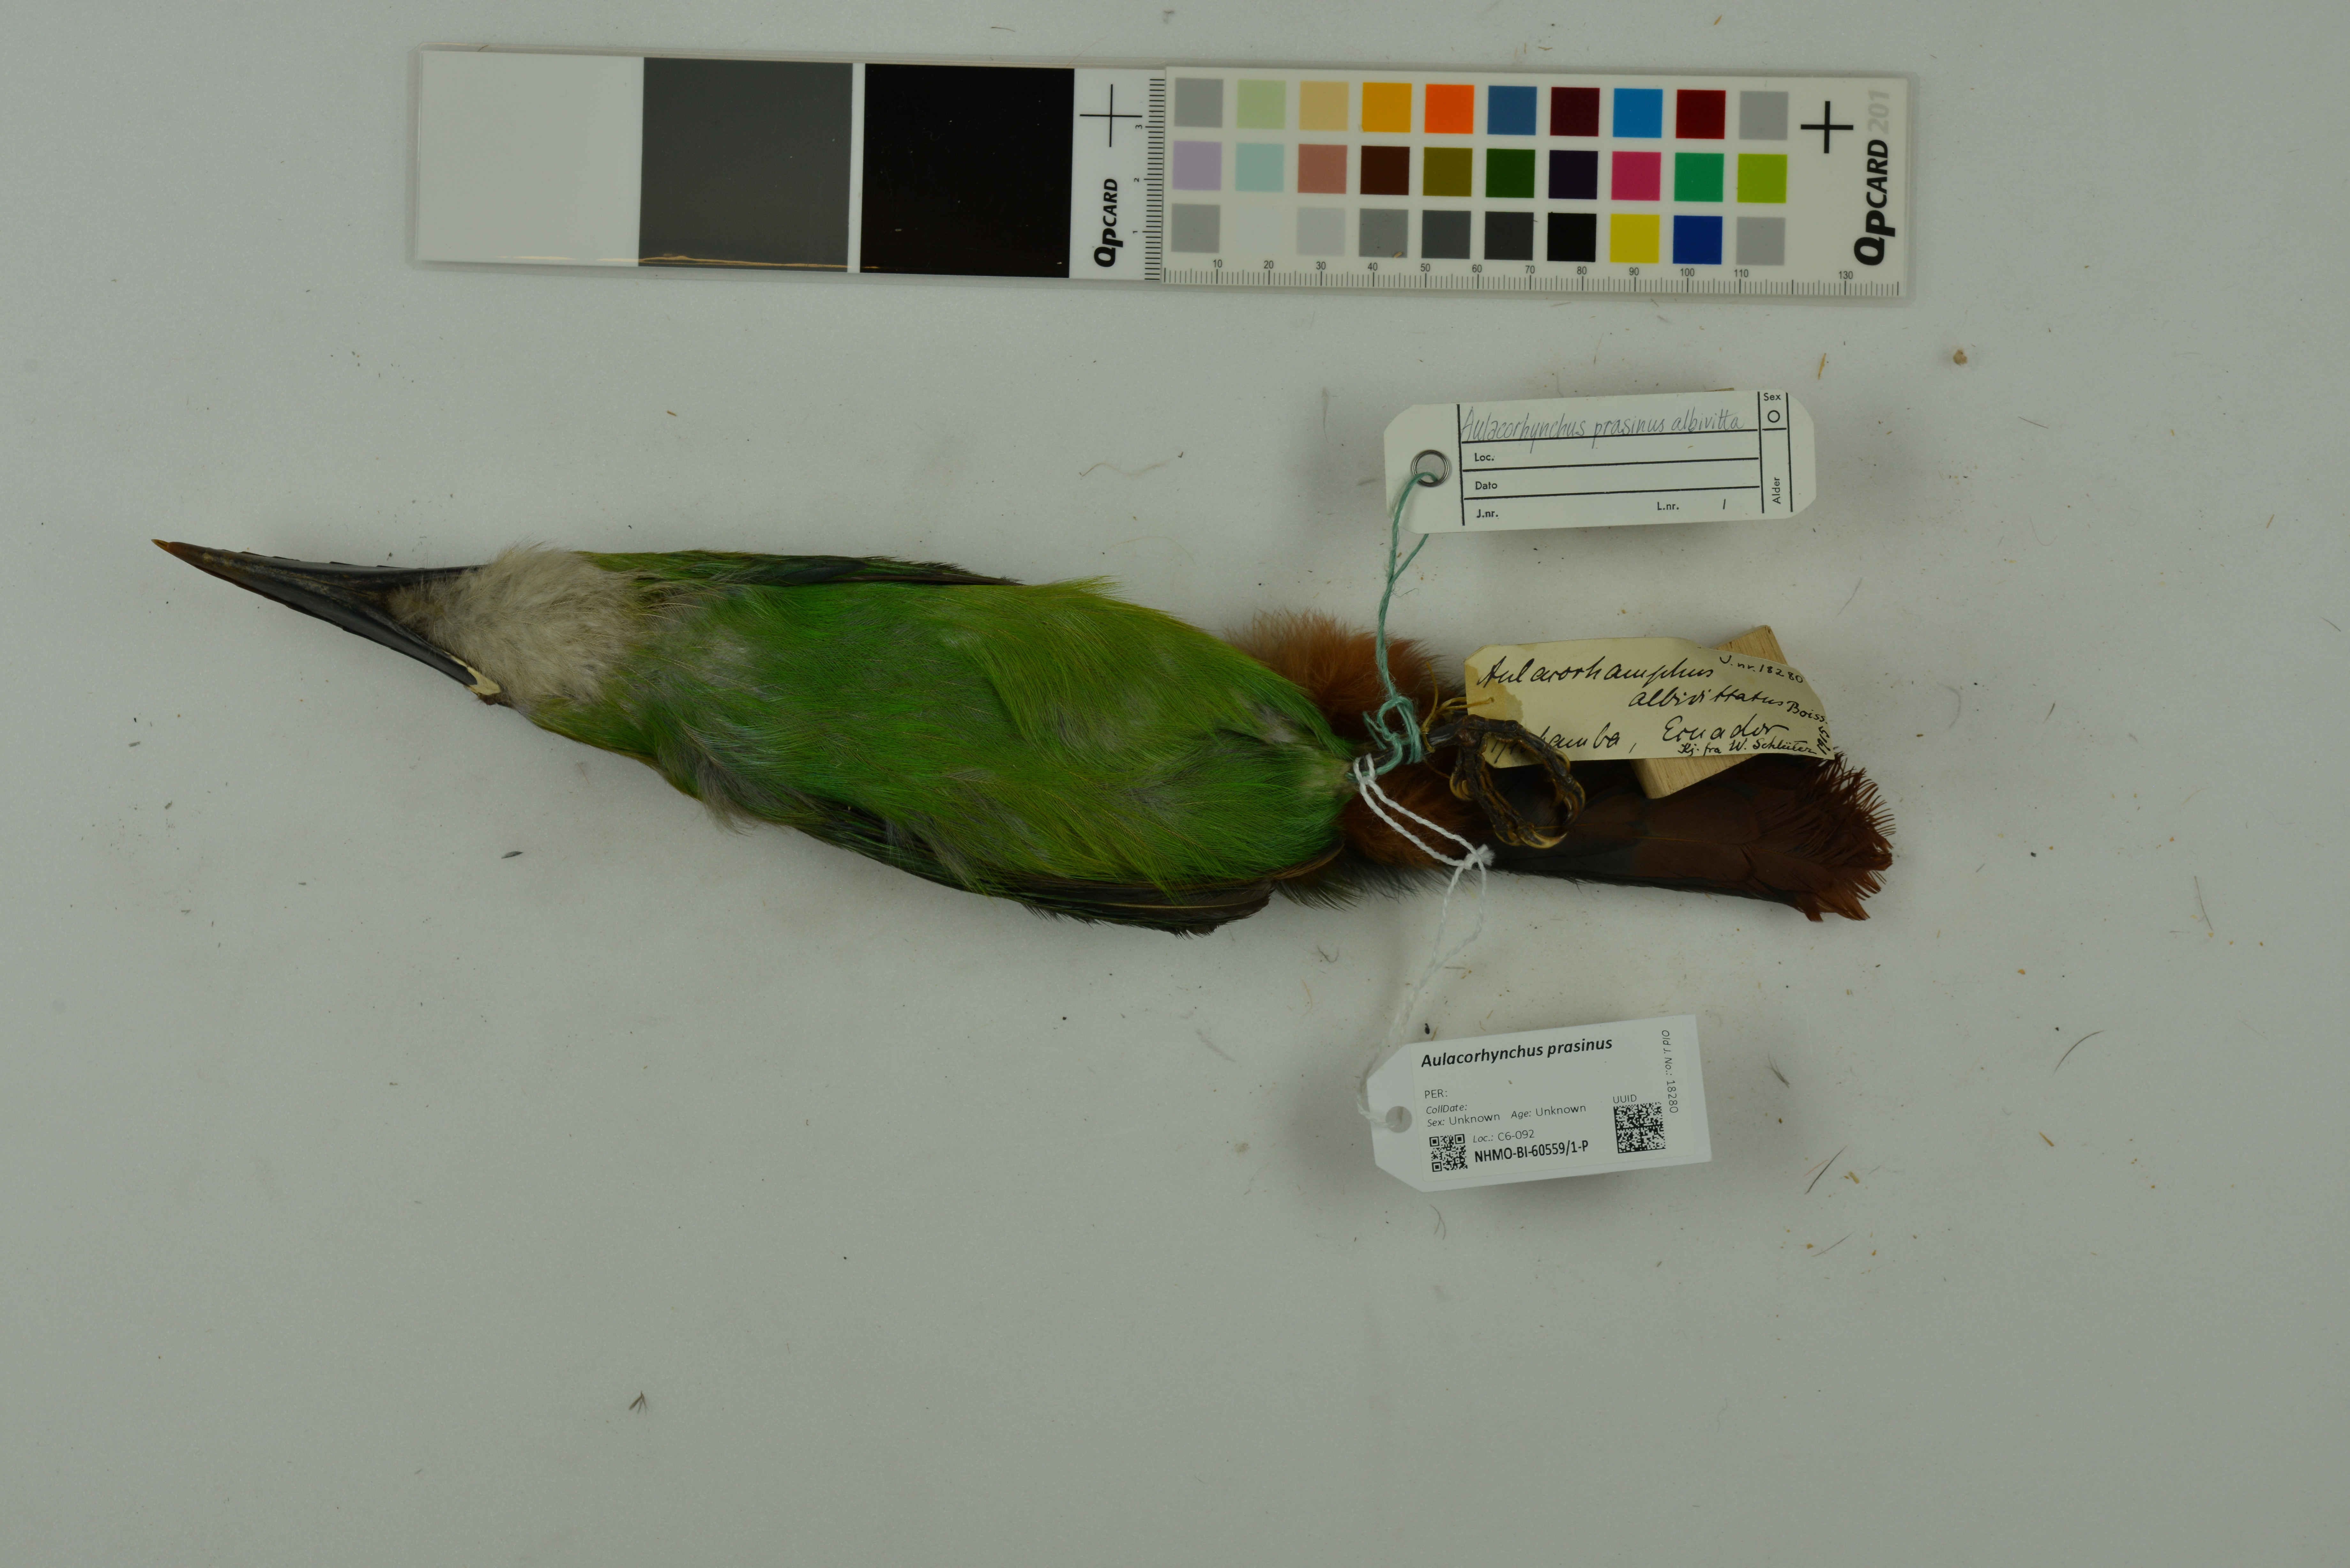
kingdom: Animalia
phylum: Chordata
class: Aves
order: Piciformes
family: Ramphastidae
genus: Aulacorhynchus
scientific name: Aulacorhynchus prasinus
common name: Emerald toucanet
